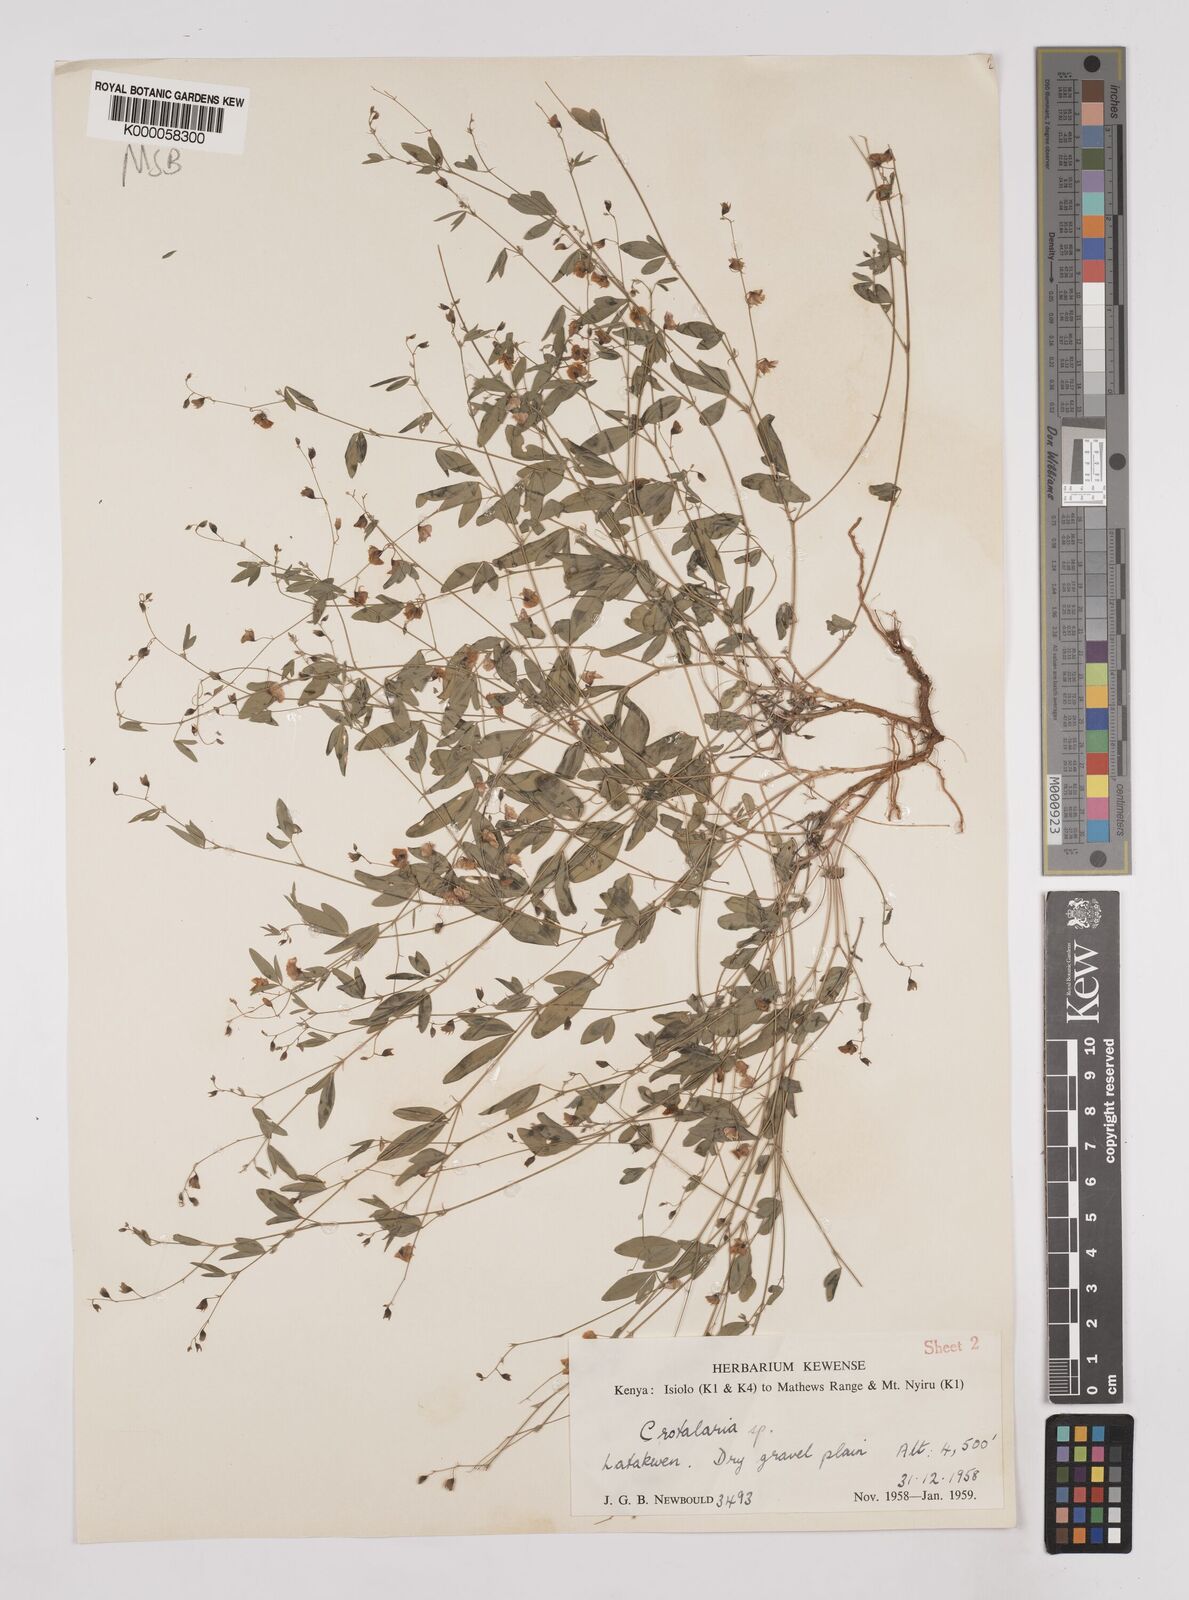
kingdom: Plantae
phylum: Tracheophyta
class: Magnoliopsida
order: Fabales
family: Fabaceae
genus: Crotalaria
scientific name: Crotalaria leptocarpa
